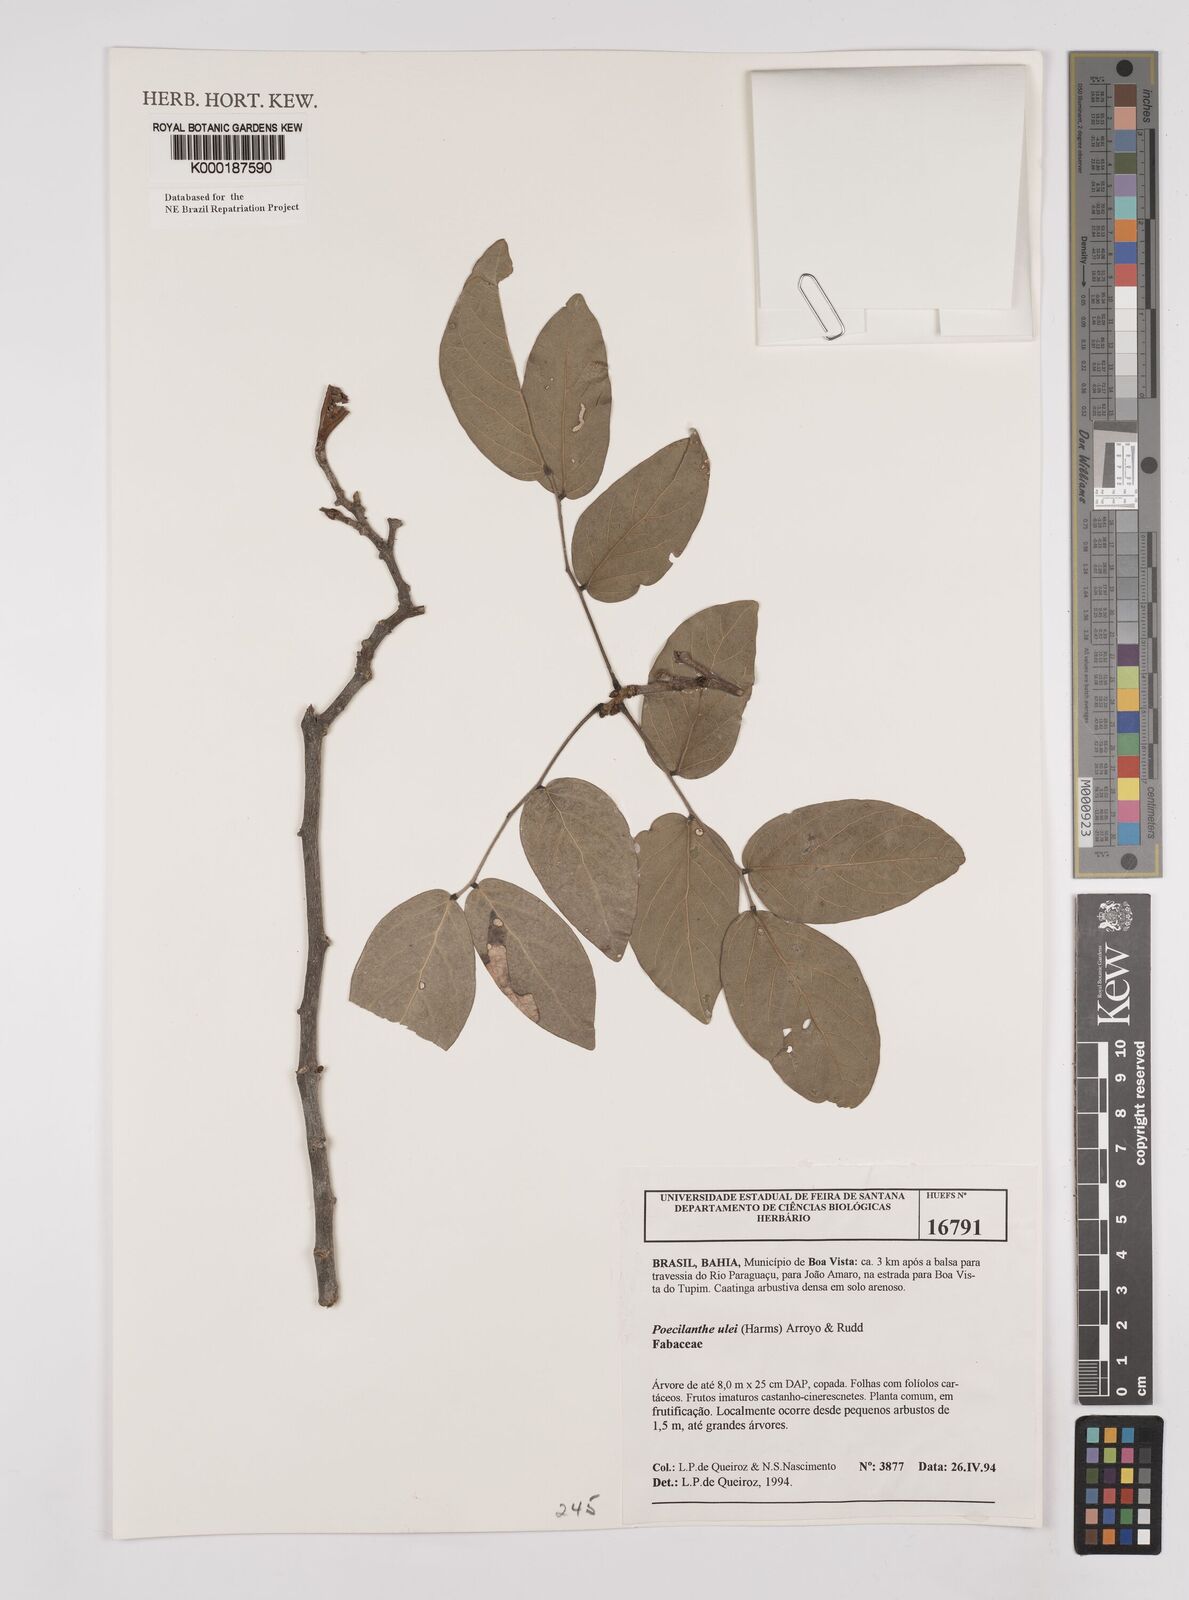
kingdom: Plantae
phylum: Tracheophyta
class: Magnoliopsida
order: Fabales
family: Fabaceae
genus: Poecilanthe
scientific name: Poecilanthe ulei
